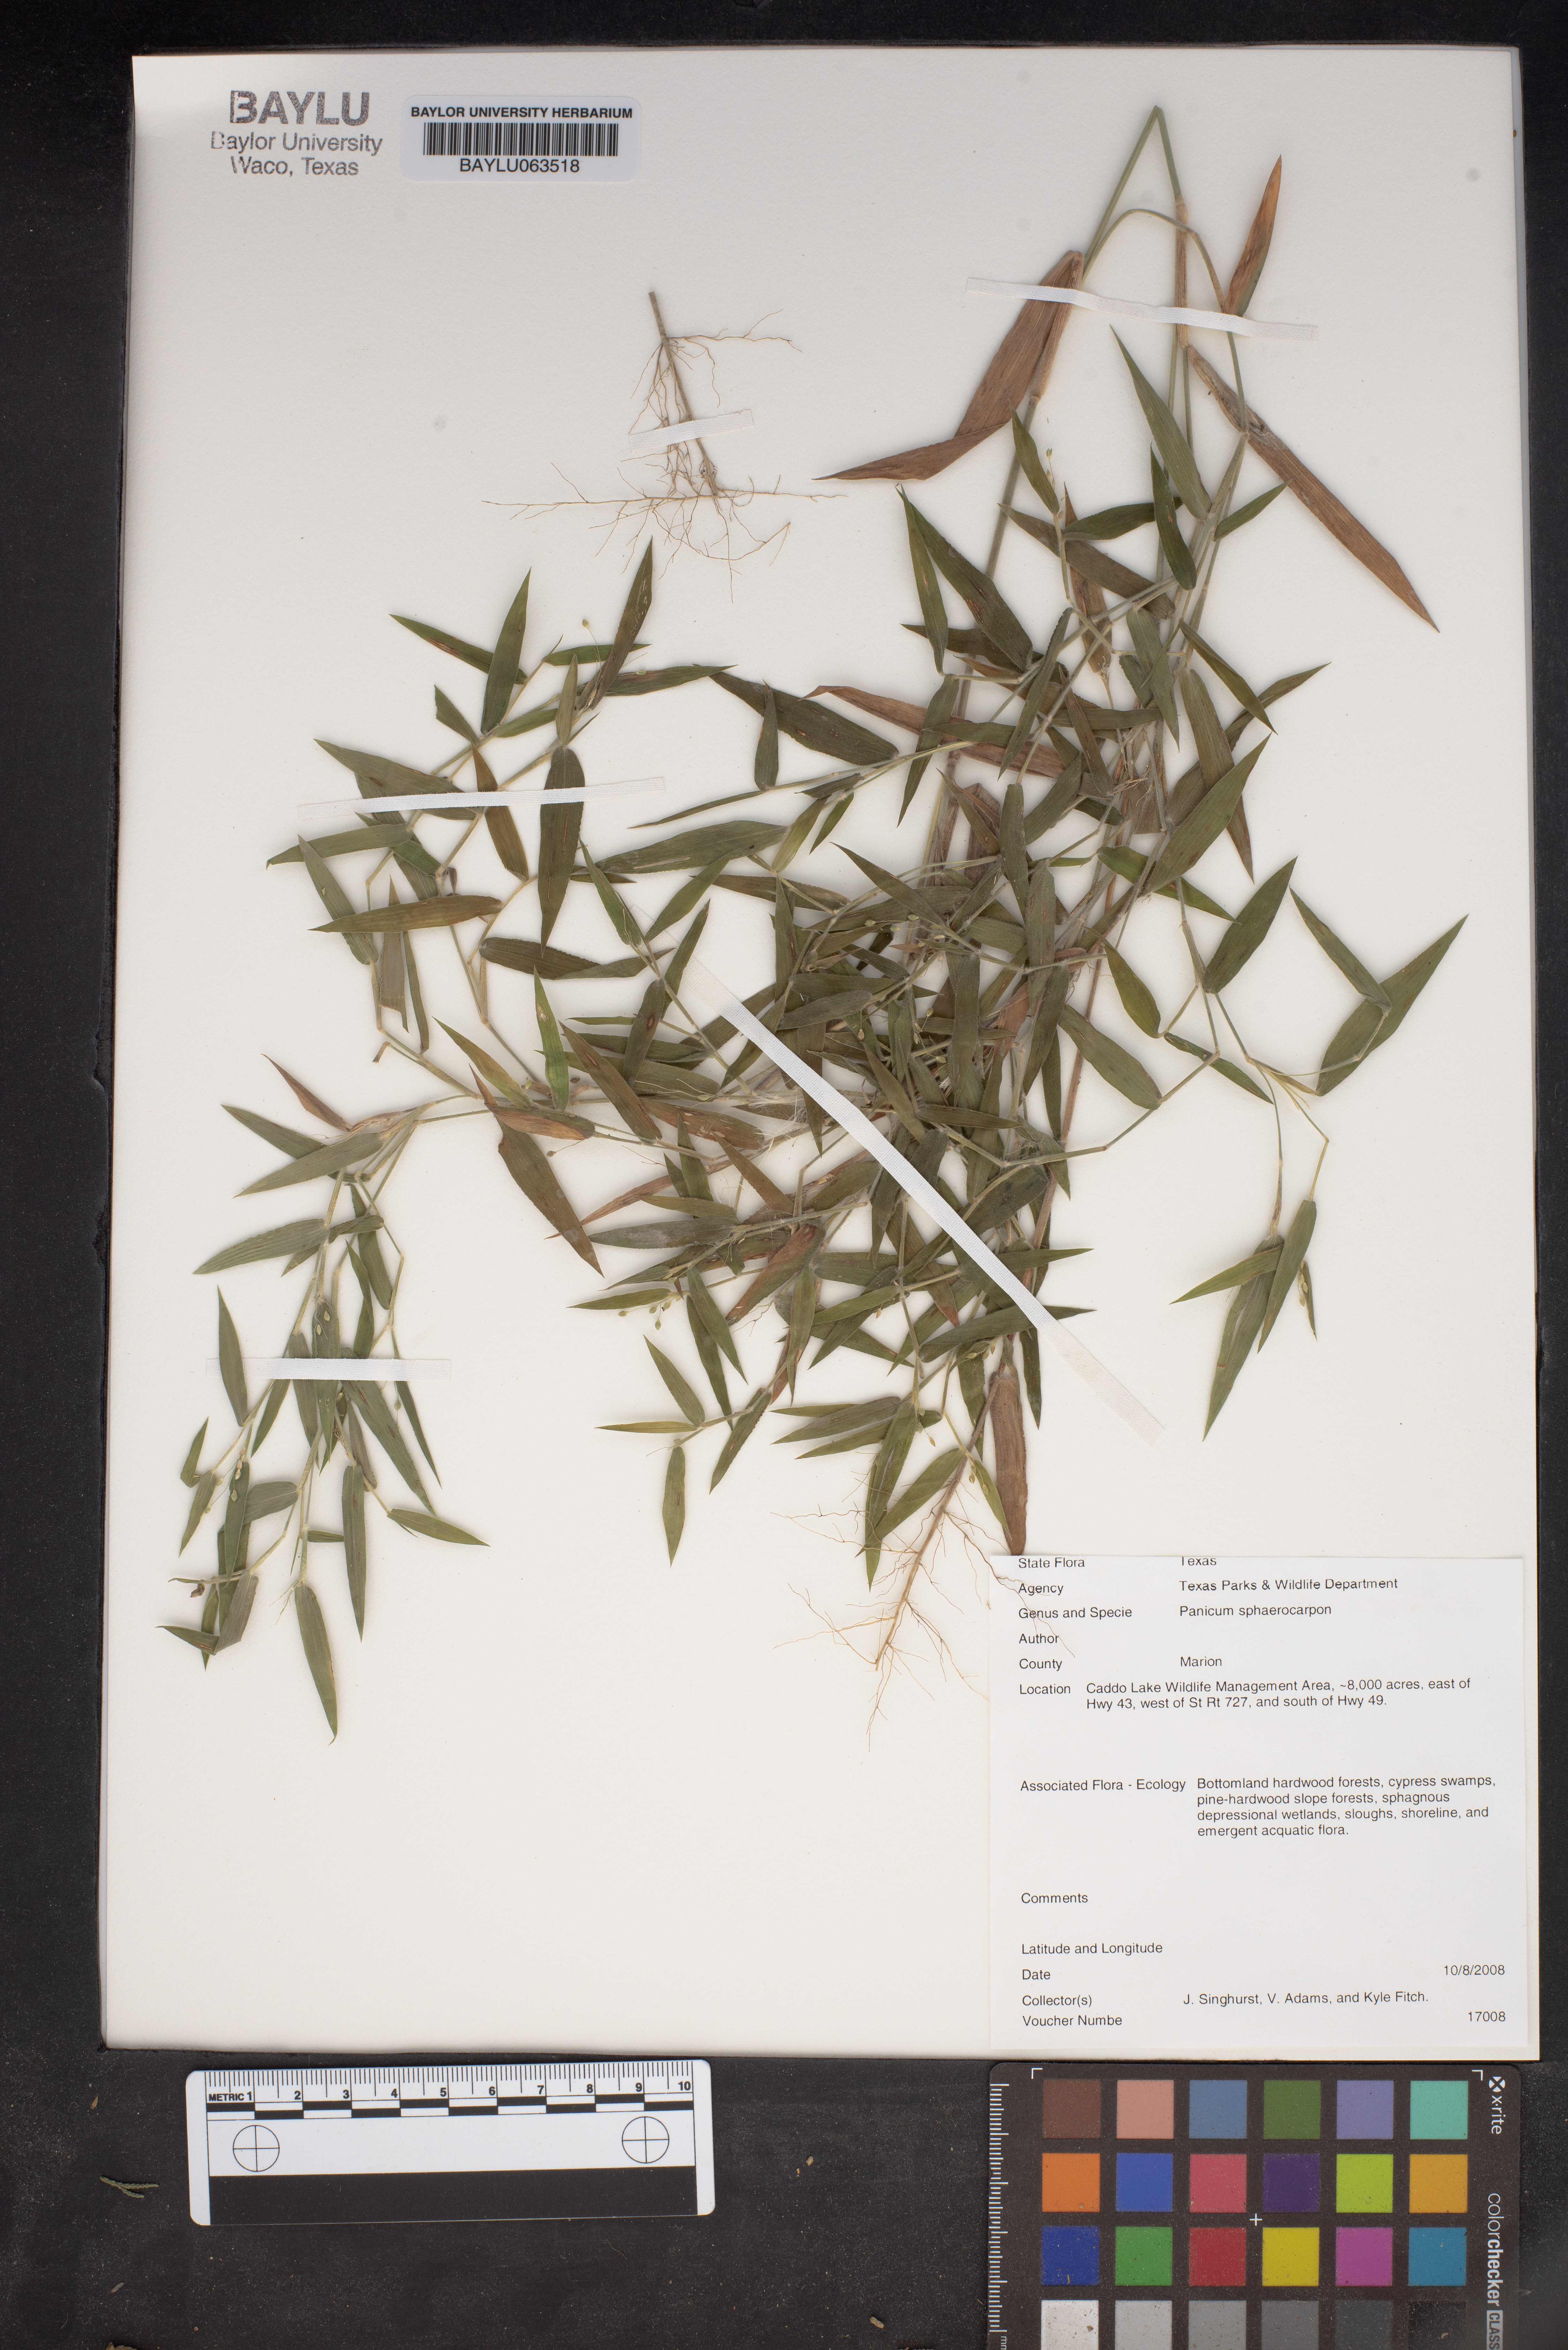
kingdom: Plantae
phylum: Tracheophyta
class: Liliopsida
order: Poales
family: Poaceae
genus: Dichanthelium
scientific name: Dichanthelium sphaerocarpon
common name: Round-fruited panicgrass
